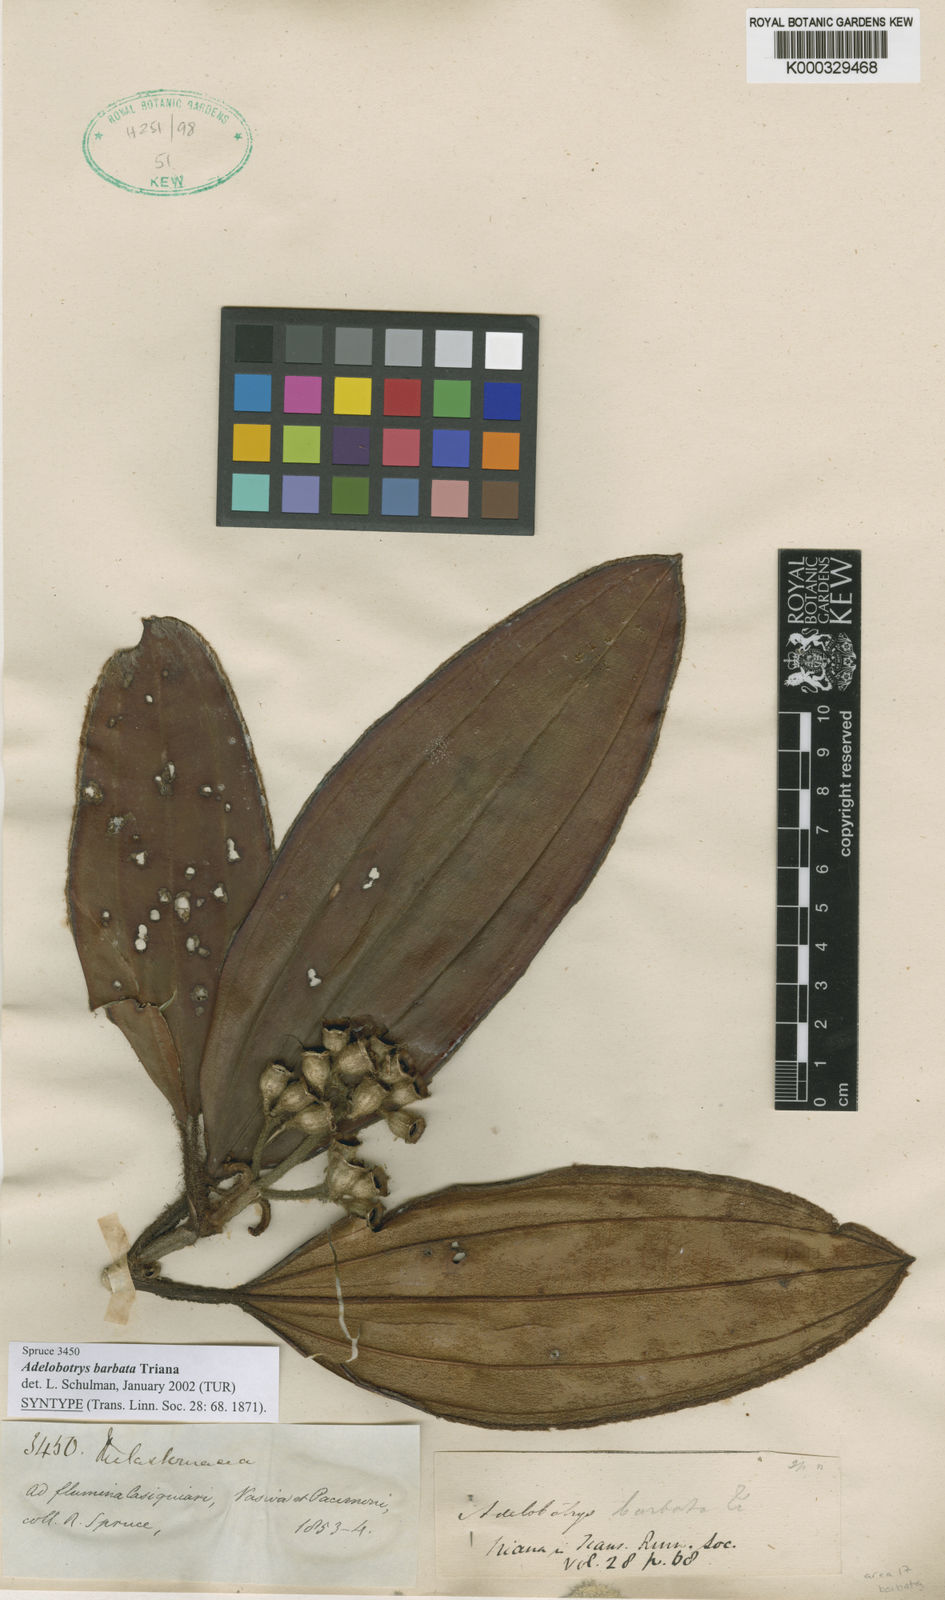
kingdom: Plantae
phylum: Tracheophyta
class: Magnoliopsida
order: Myrtales
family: Melastomataceae
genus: Adelobotrys
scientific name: Adelobotrys barbatus
